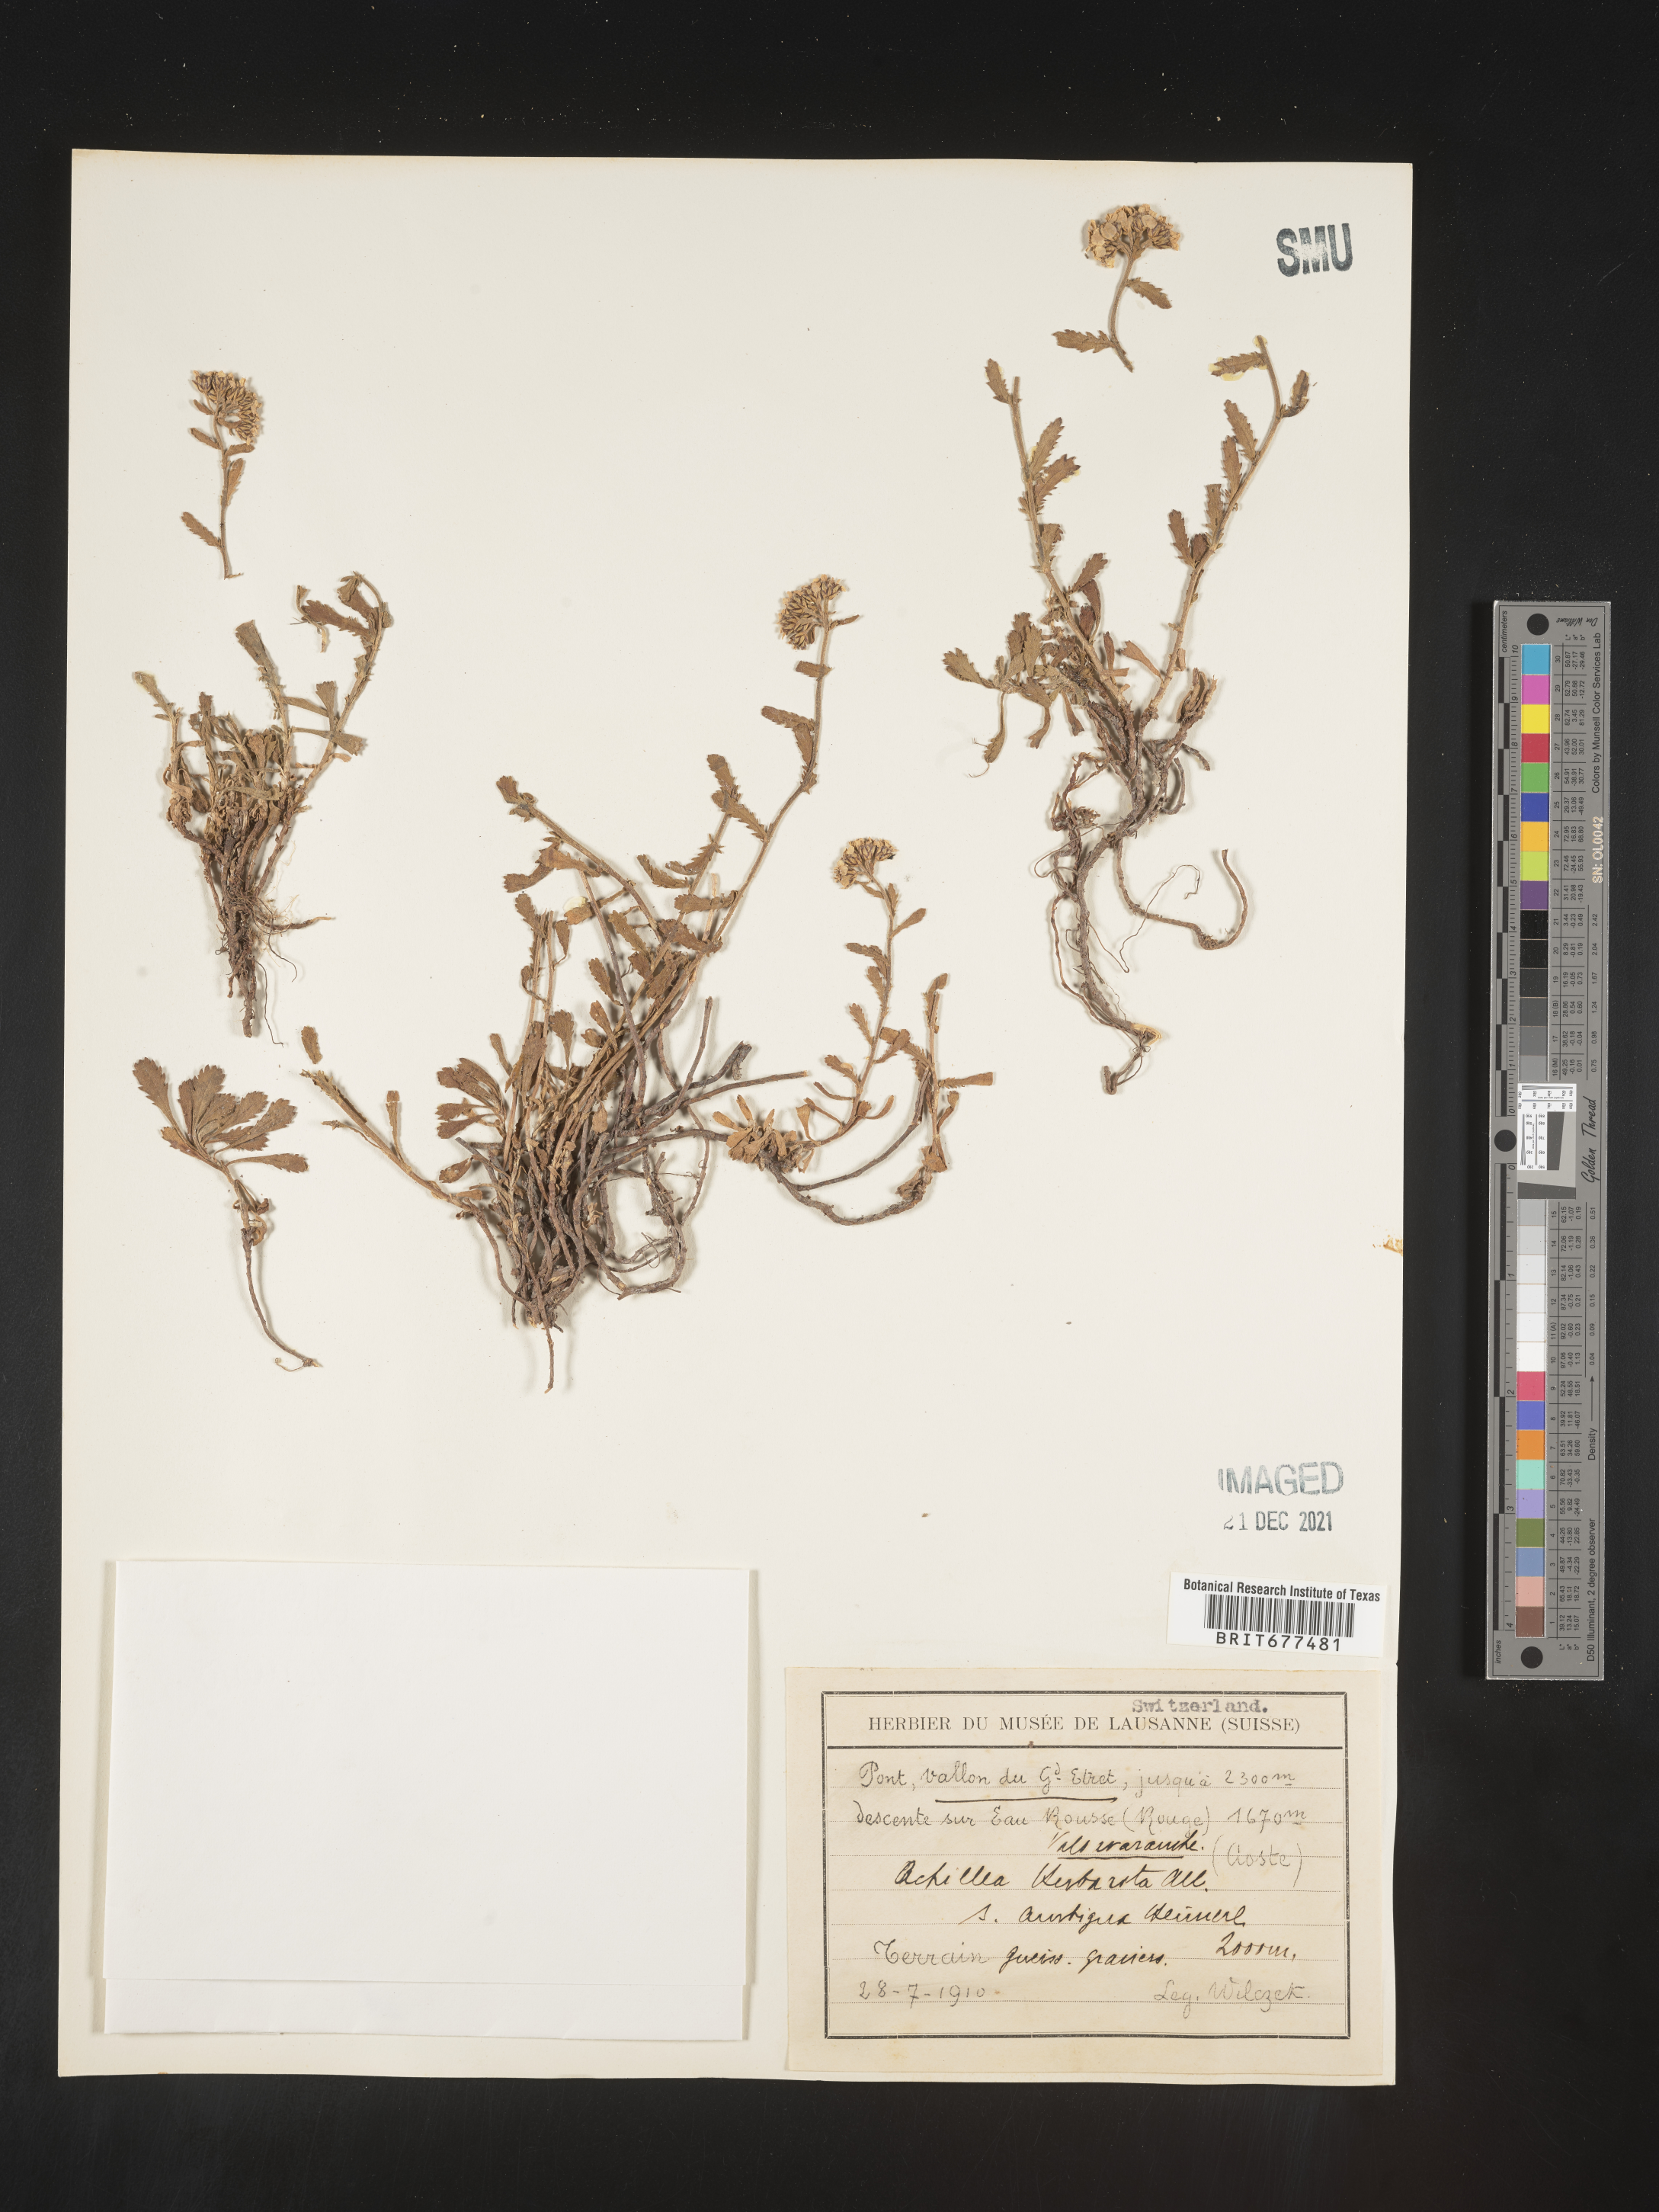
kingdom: Plantae
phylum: Tracheophyta
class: Magnoliopsida
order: Asterales
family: Asteraceae
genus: Achillea
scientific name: Achillea
